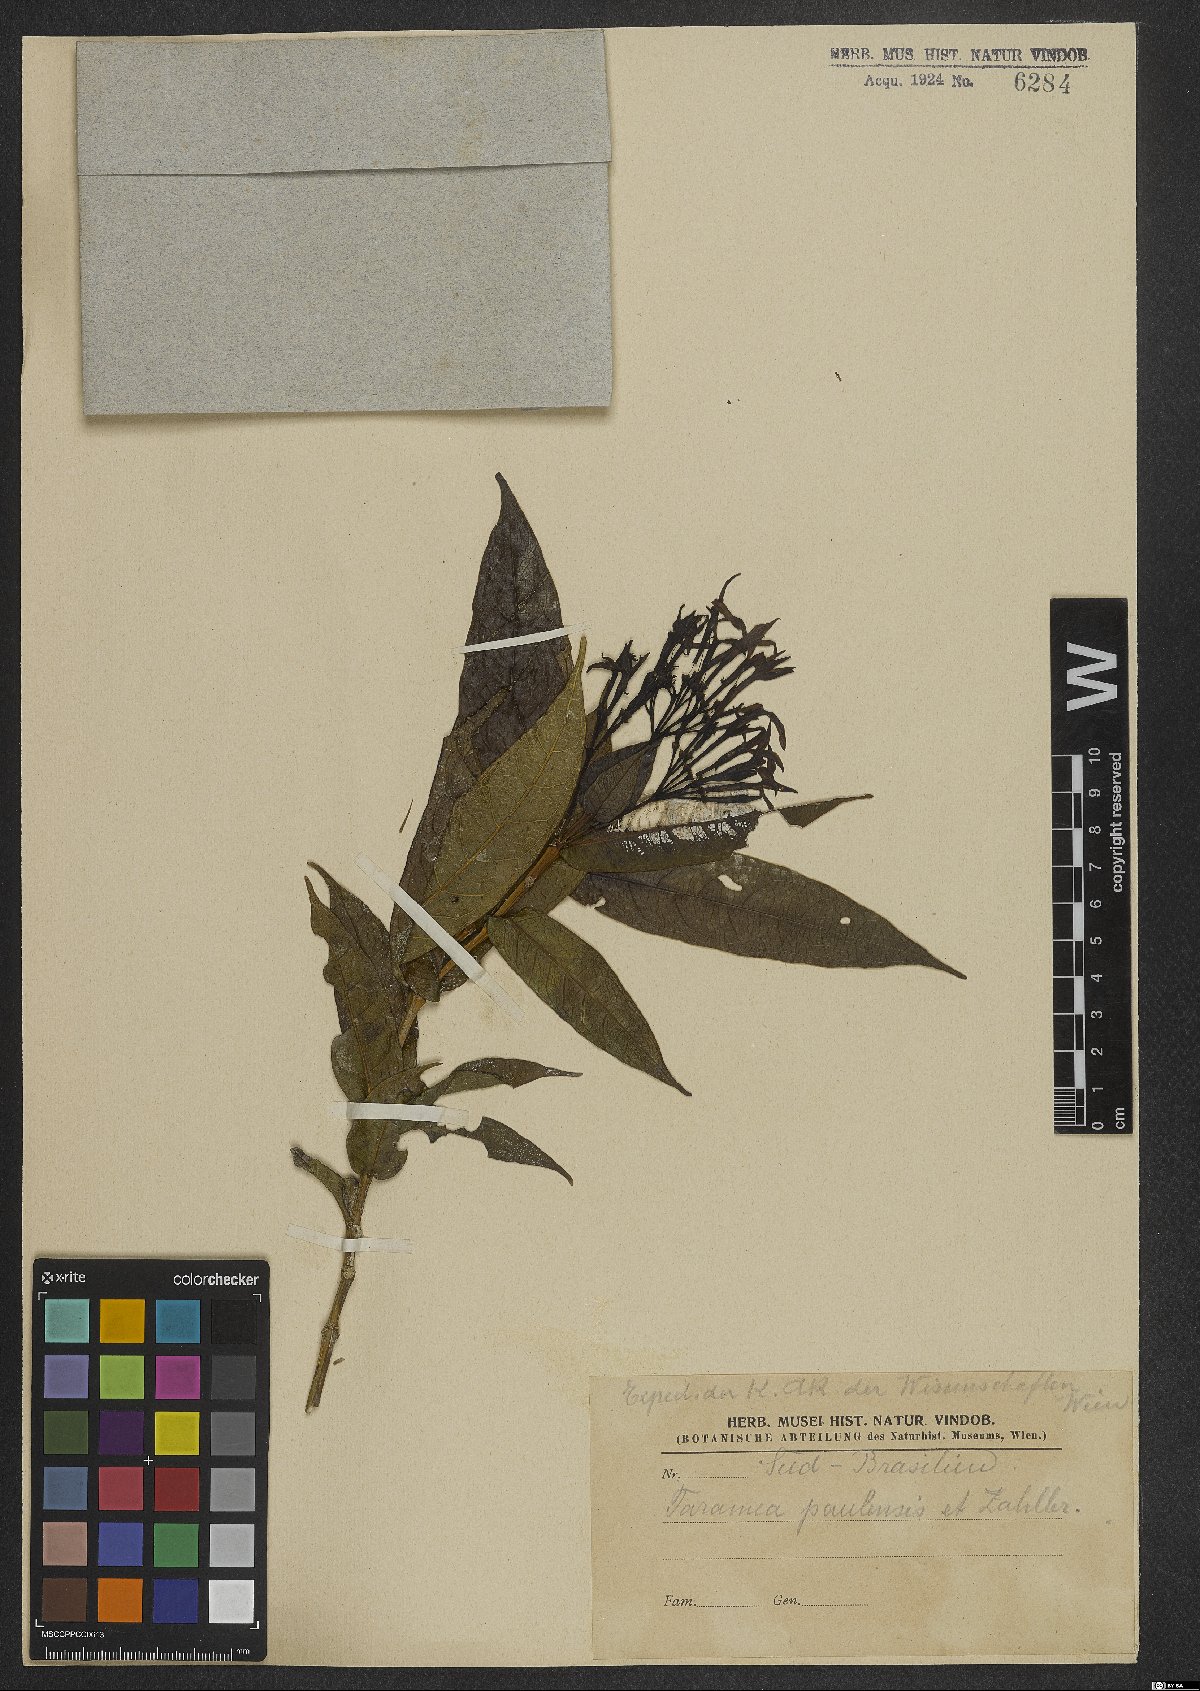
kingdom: Plantae
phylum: Tracheophyta
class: Magnoliopsida
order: Gentianales
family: Rubiaceae
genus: Faramea
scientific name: Faramea tetragona
